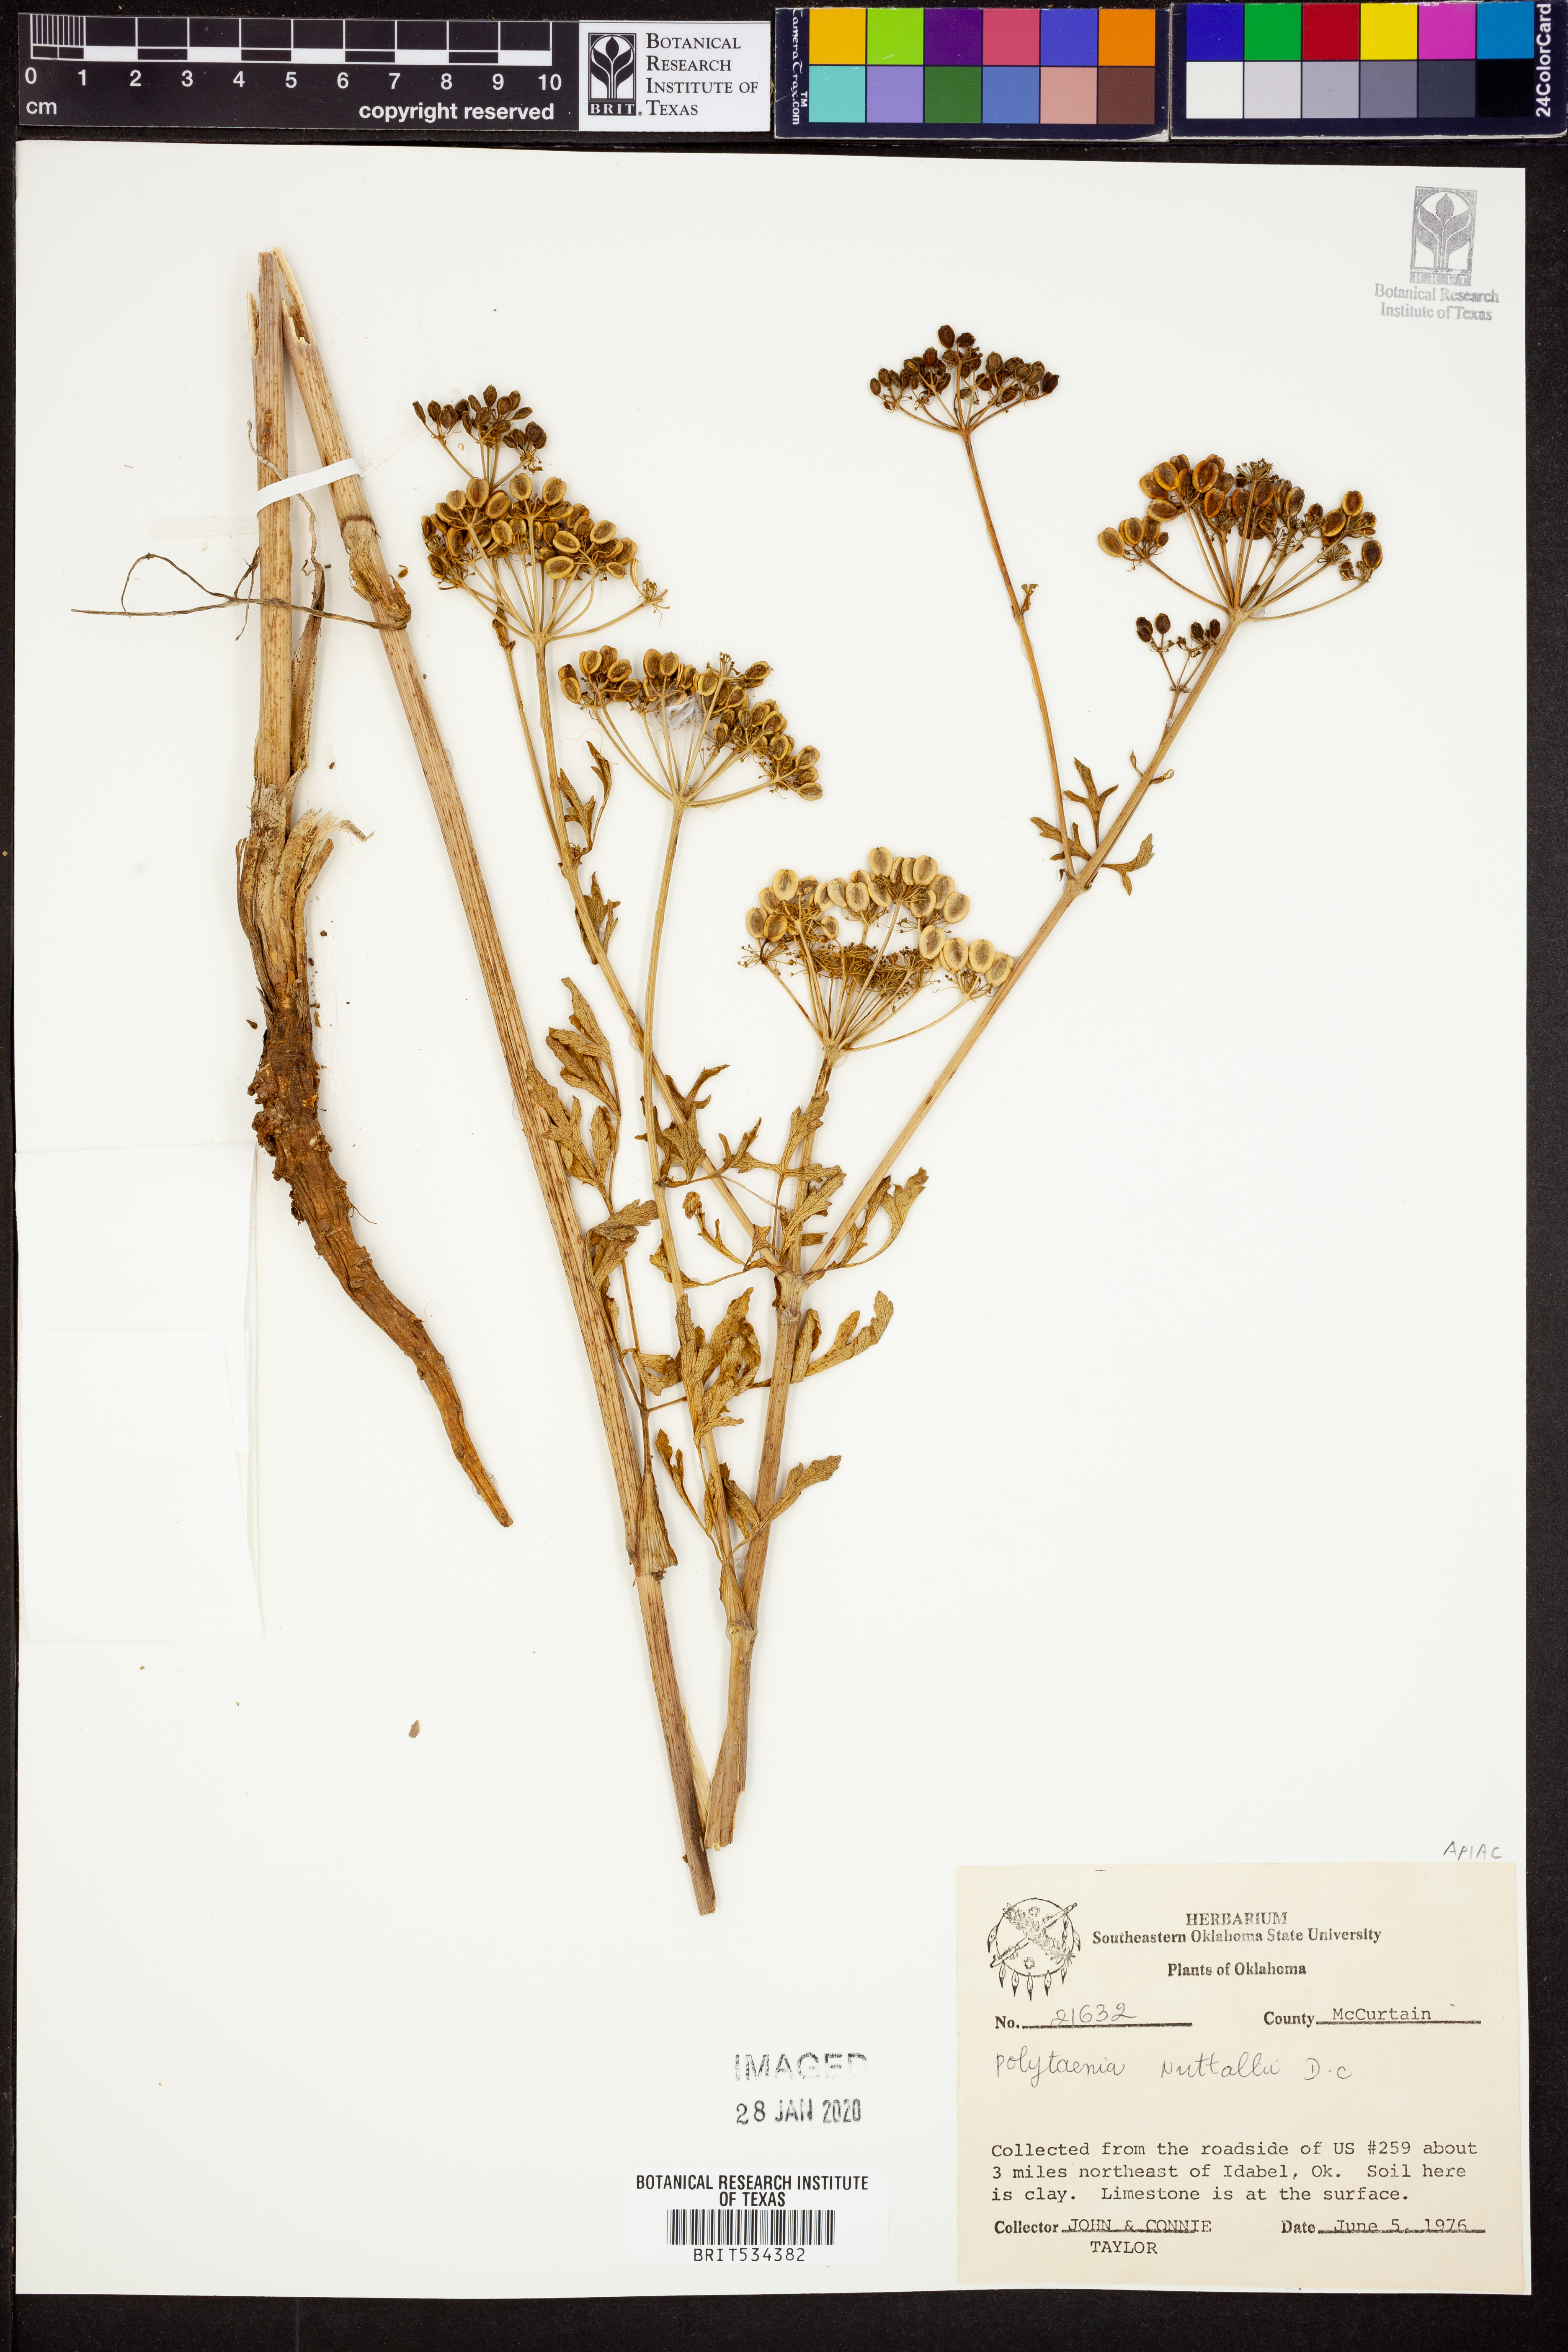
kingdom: Plantae
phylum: Tracheophyta
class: Magnoliopsida
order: Apiales
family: Apiaceae
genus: Polytaenia
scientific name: Polytaenia nuttallii
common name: Prairie-parsley
